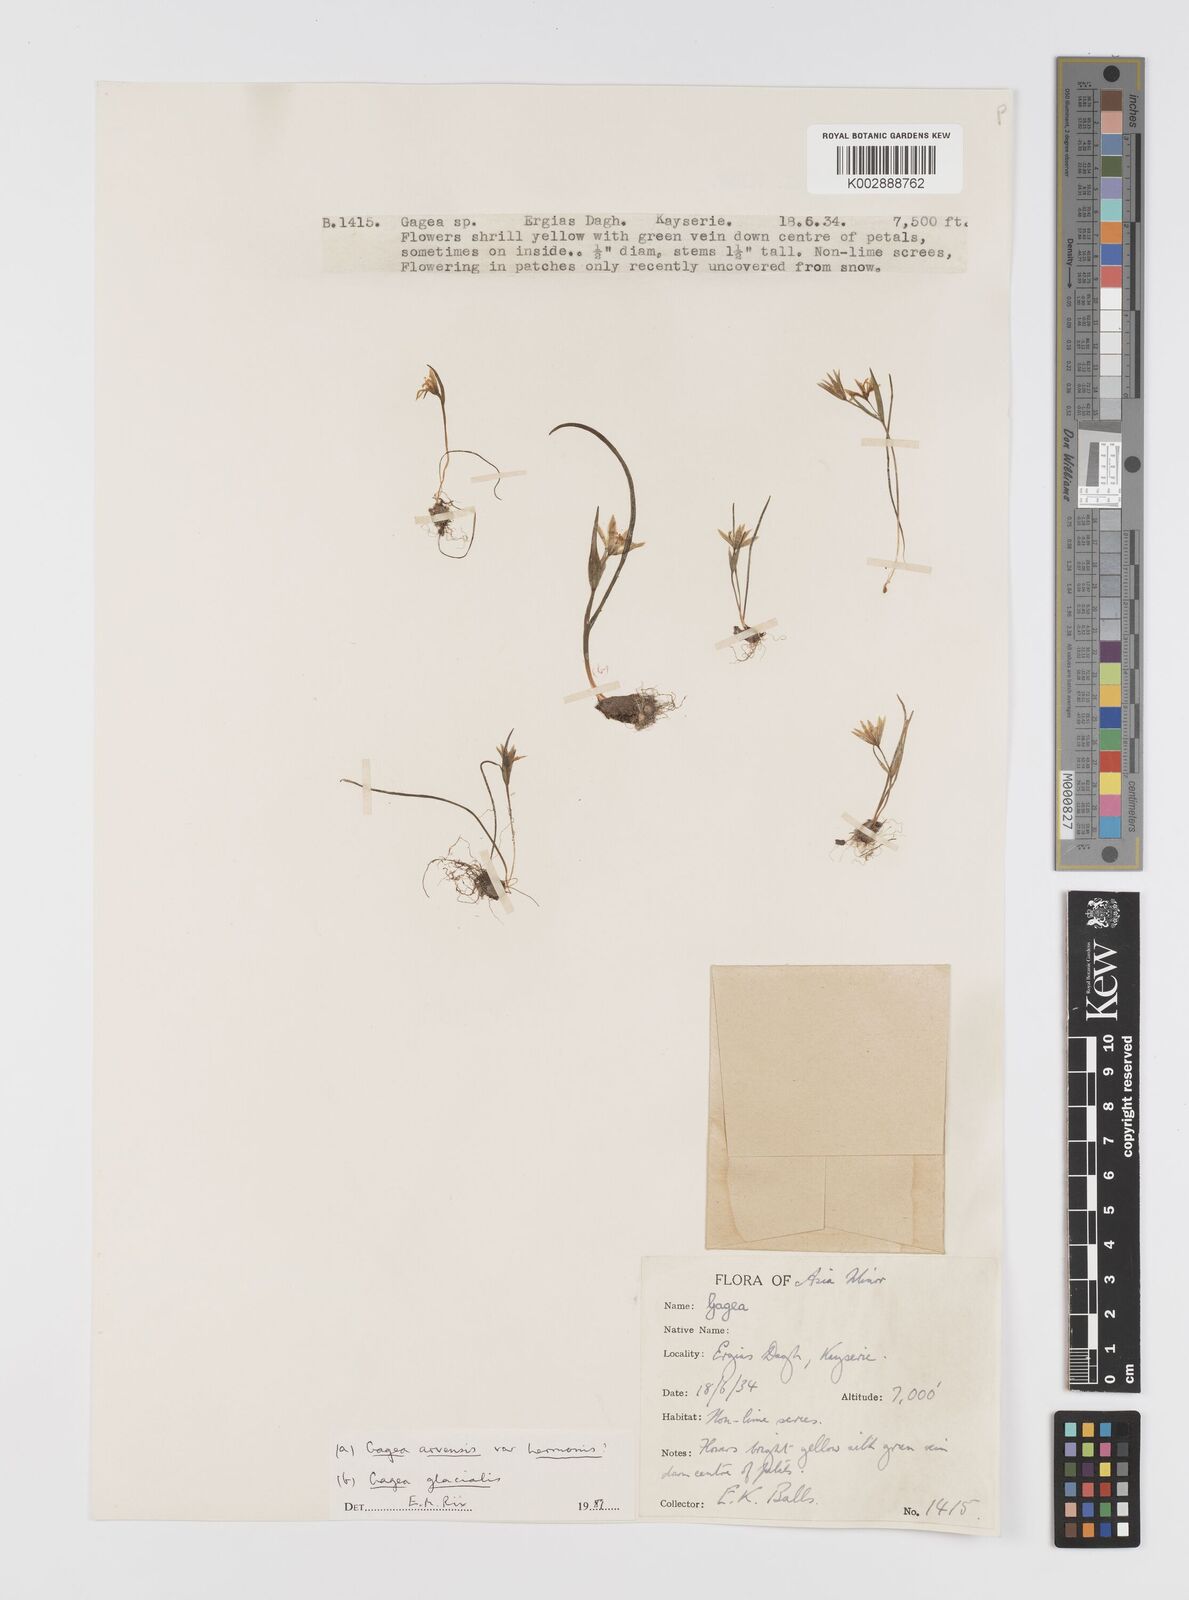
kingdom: Plantae
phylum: Tracheophyta
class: Liliopsida
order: Liliales
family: Liliaceae
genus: Gagea
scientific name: Gagea
